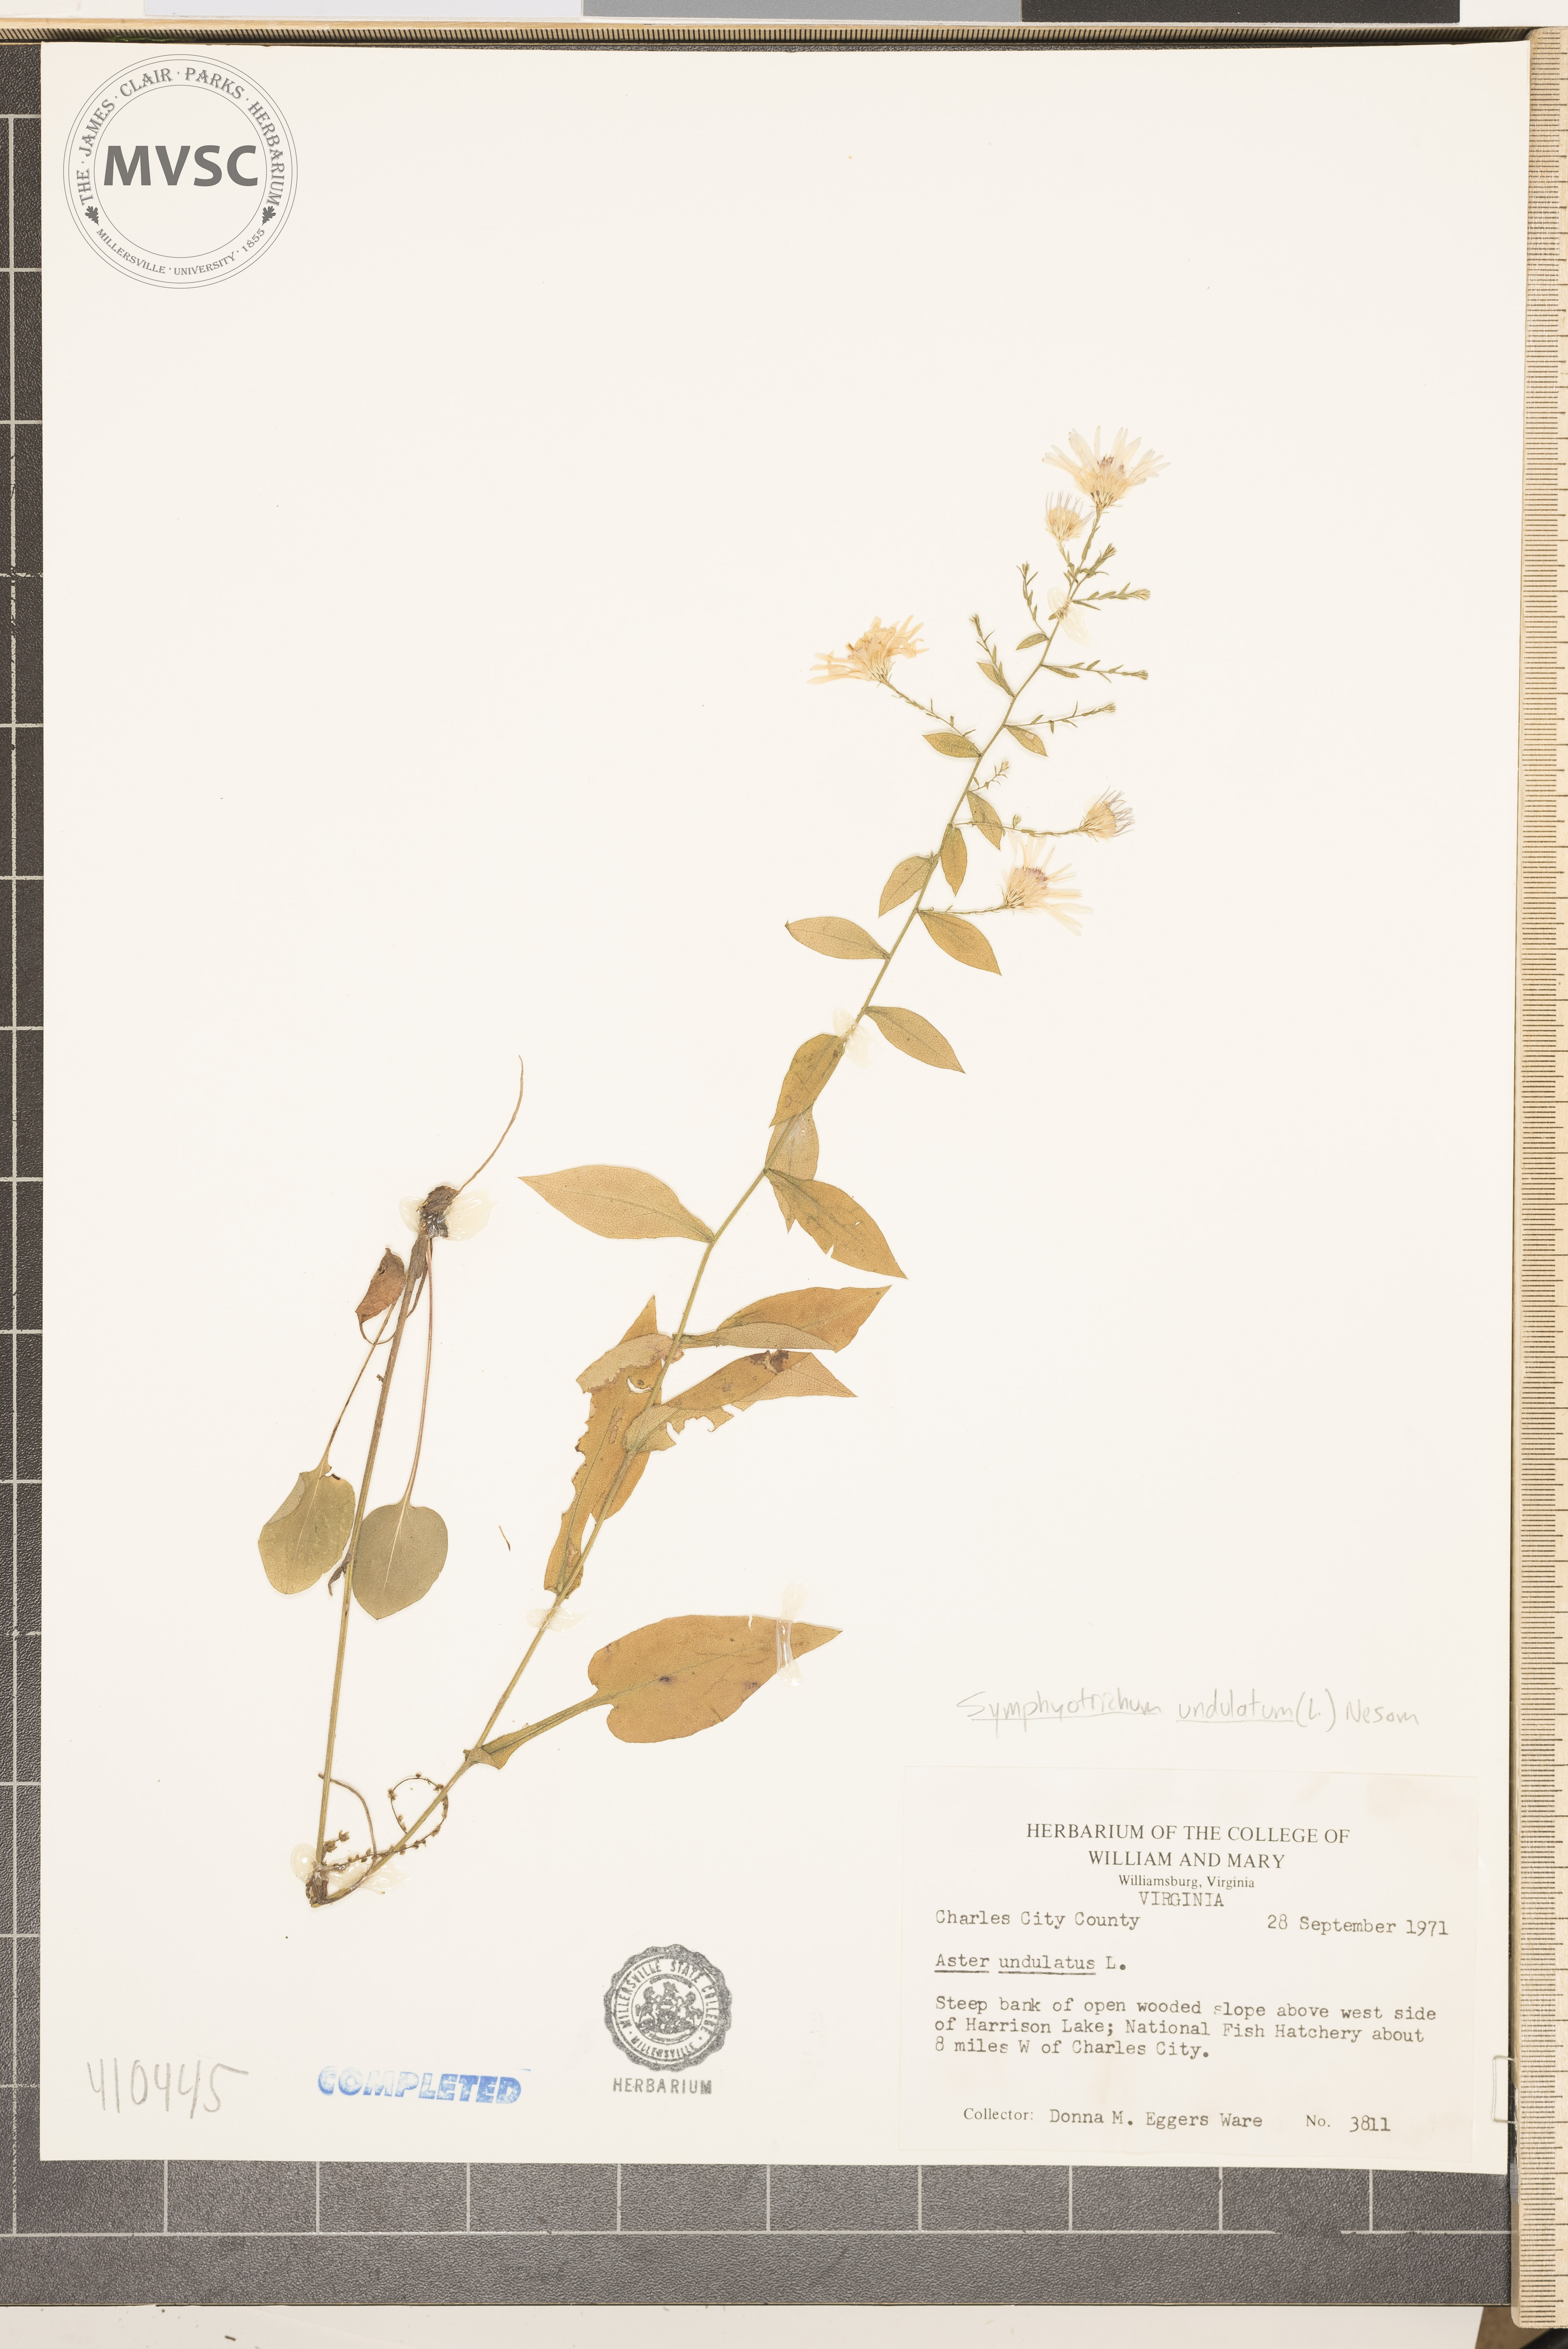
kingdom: Plantae
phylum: Tracheophyta
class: Magnoliopsida
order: Asterales
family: Asteraceae
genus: Symphyotrichum
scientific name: Symphyotrichum undulatum
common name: Wavyleaf aster
